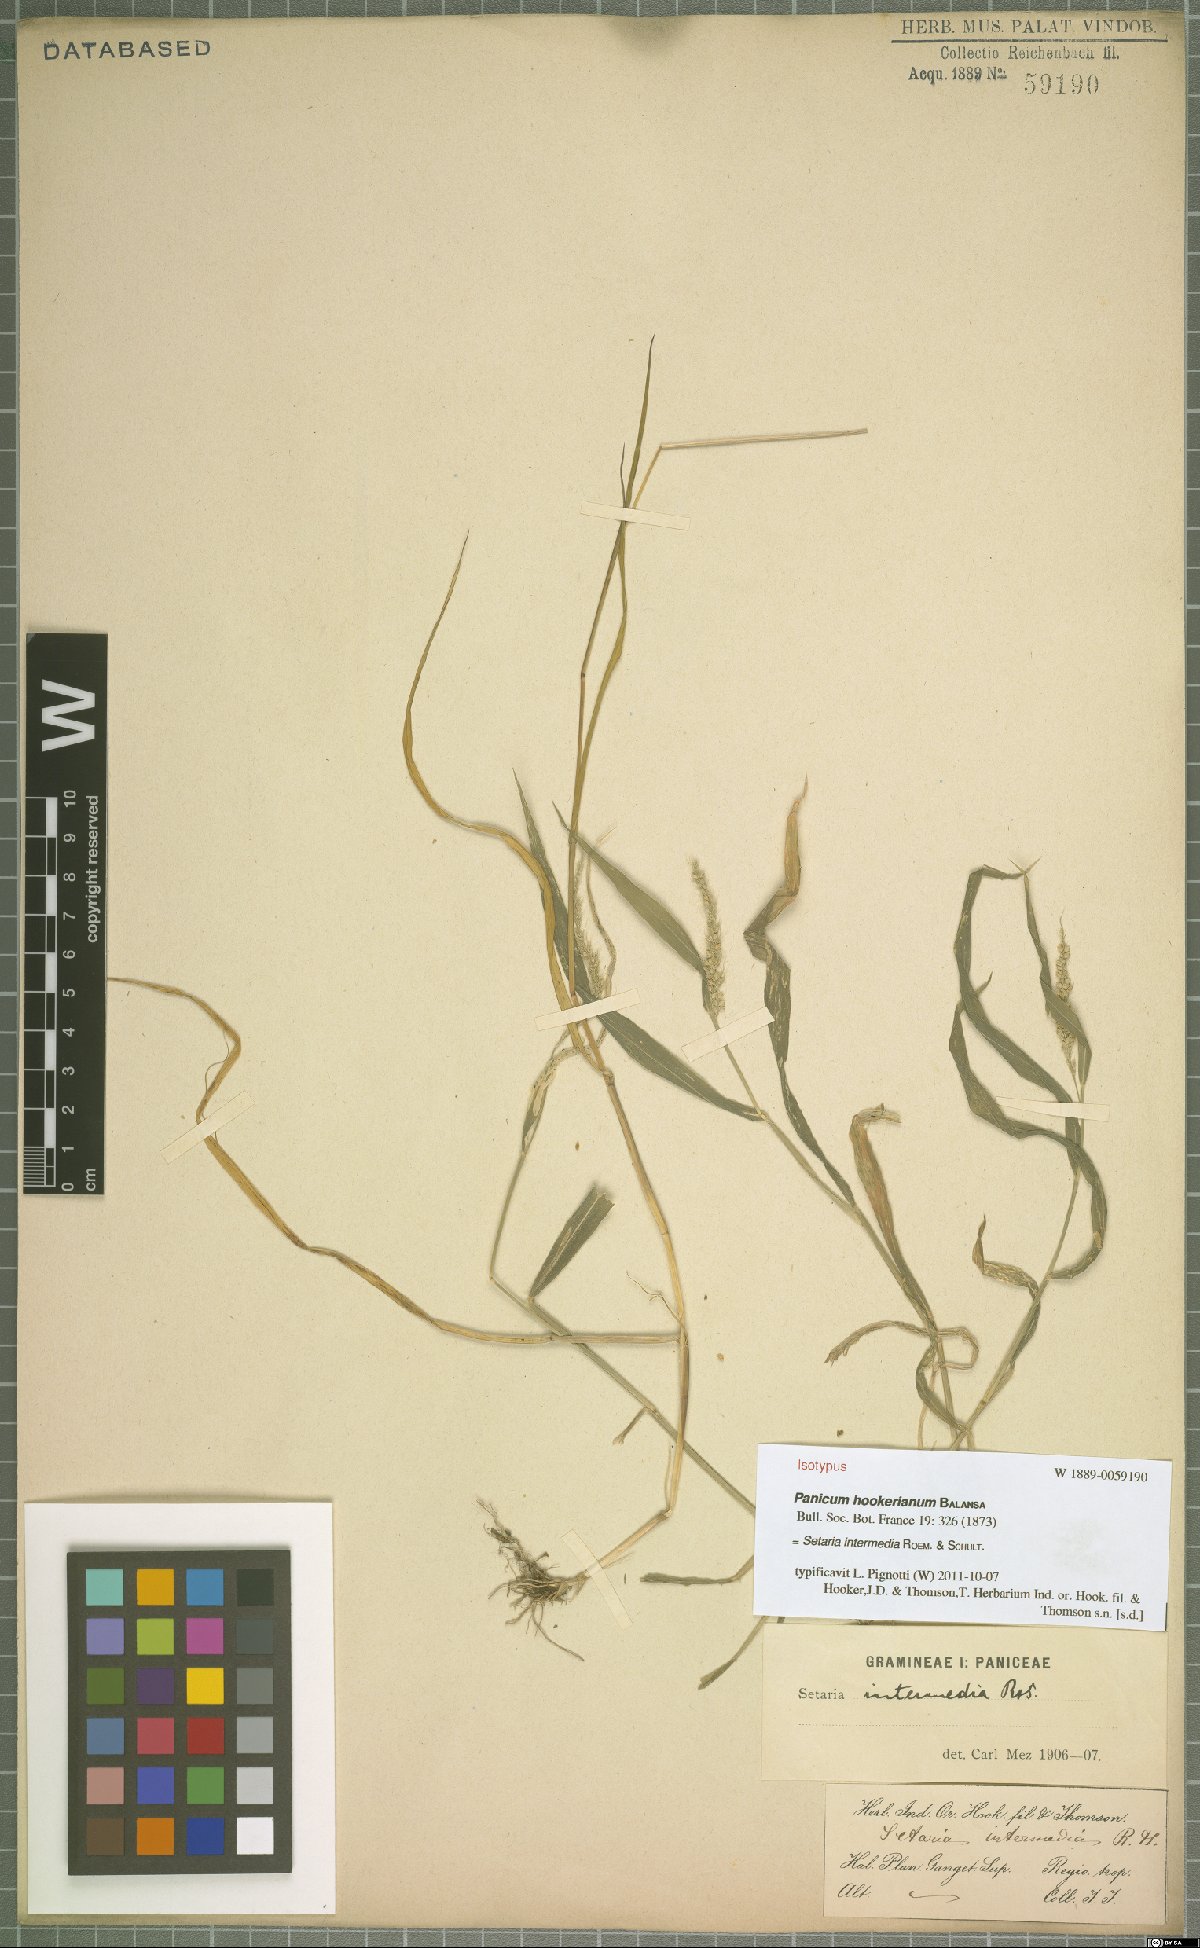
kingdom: Plantae
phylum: Tracheophyta
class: Liliopsida
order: Poales
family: Poaceae
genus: Setaria
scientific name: Setaria intermedia
